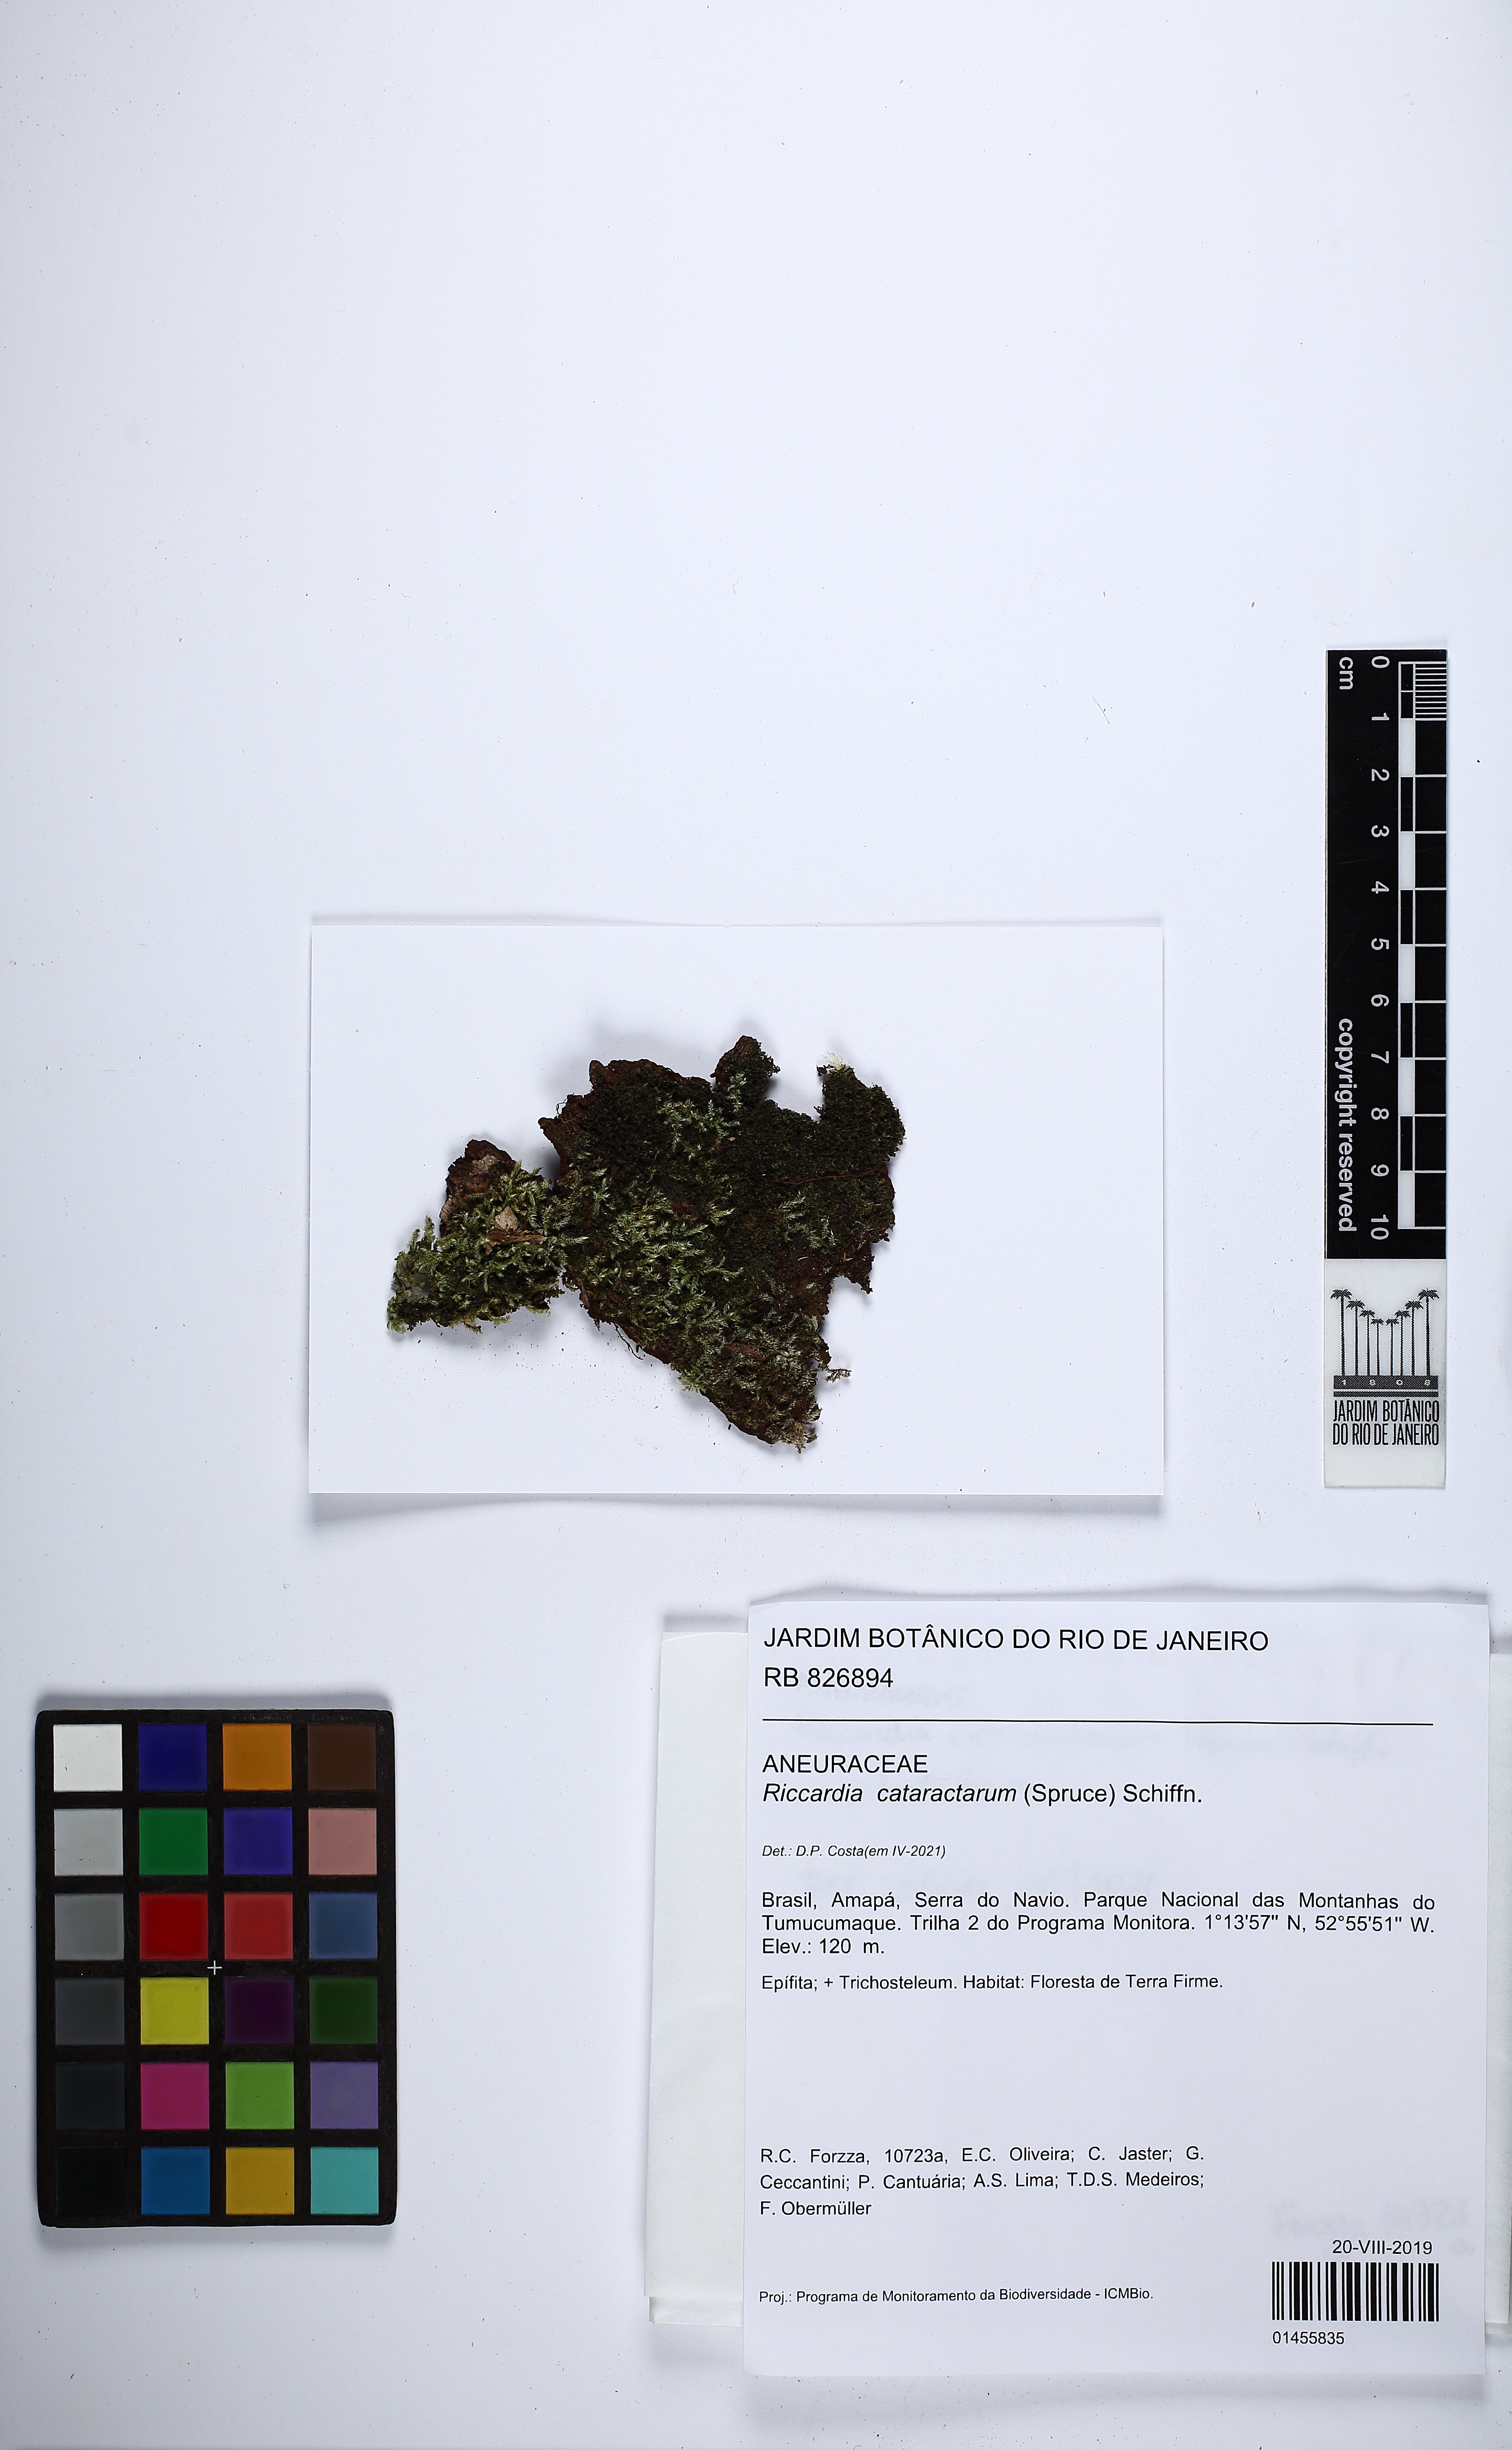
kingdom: Plantae
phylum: Marchantiophyta
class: Jungermanniopsida
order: Metzgeriales
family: Aneuraceae
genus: Riccardia
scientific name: Riccardia cataractarum
